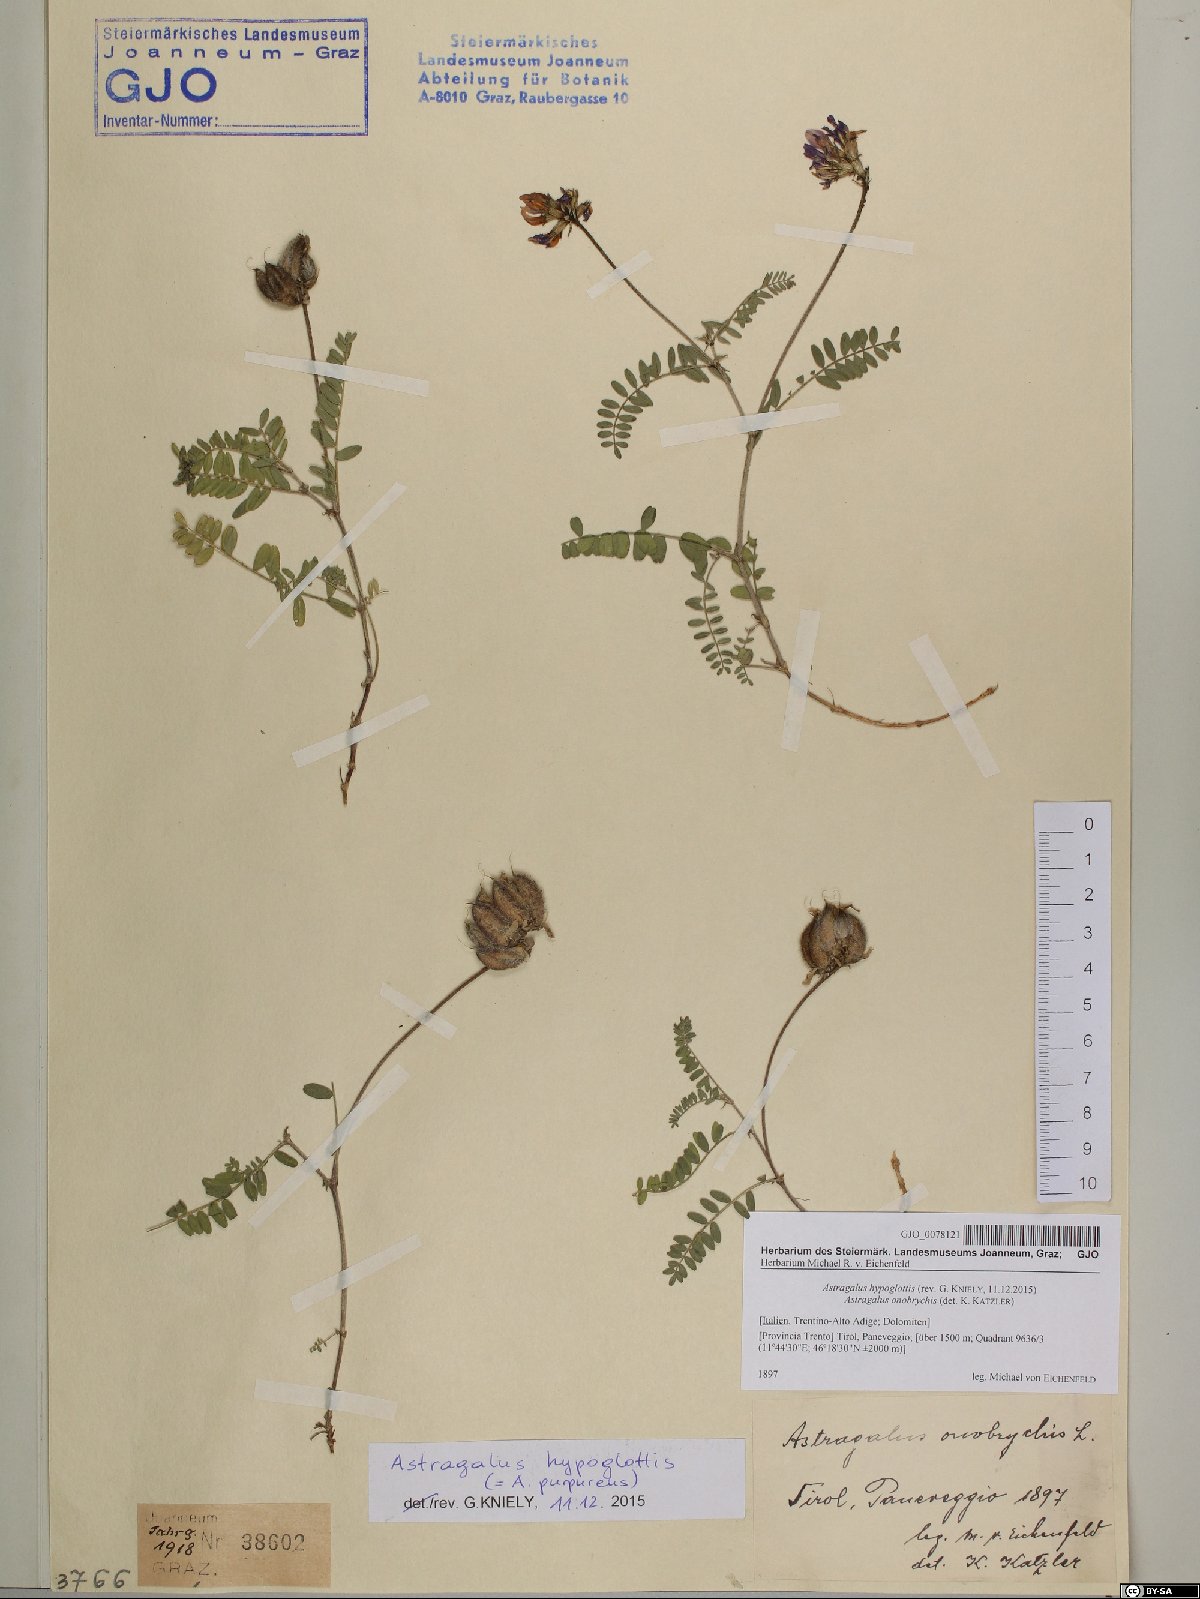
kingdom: Plantae
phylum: Tracheophyta
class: Magnoliopsida
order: Fabales
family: Fabaceae
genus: Astragalus
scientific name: Astragalus hypoglottis
